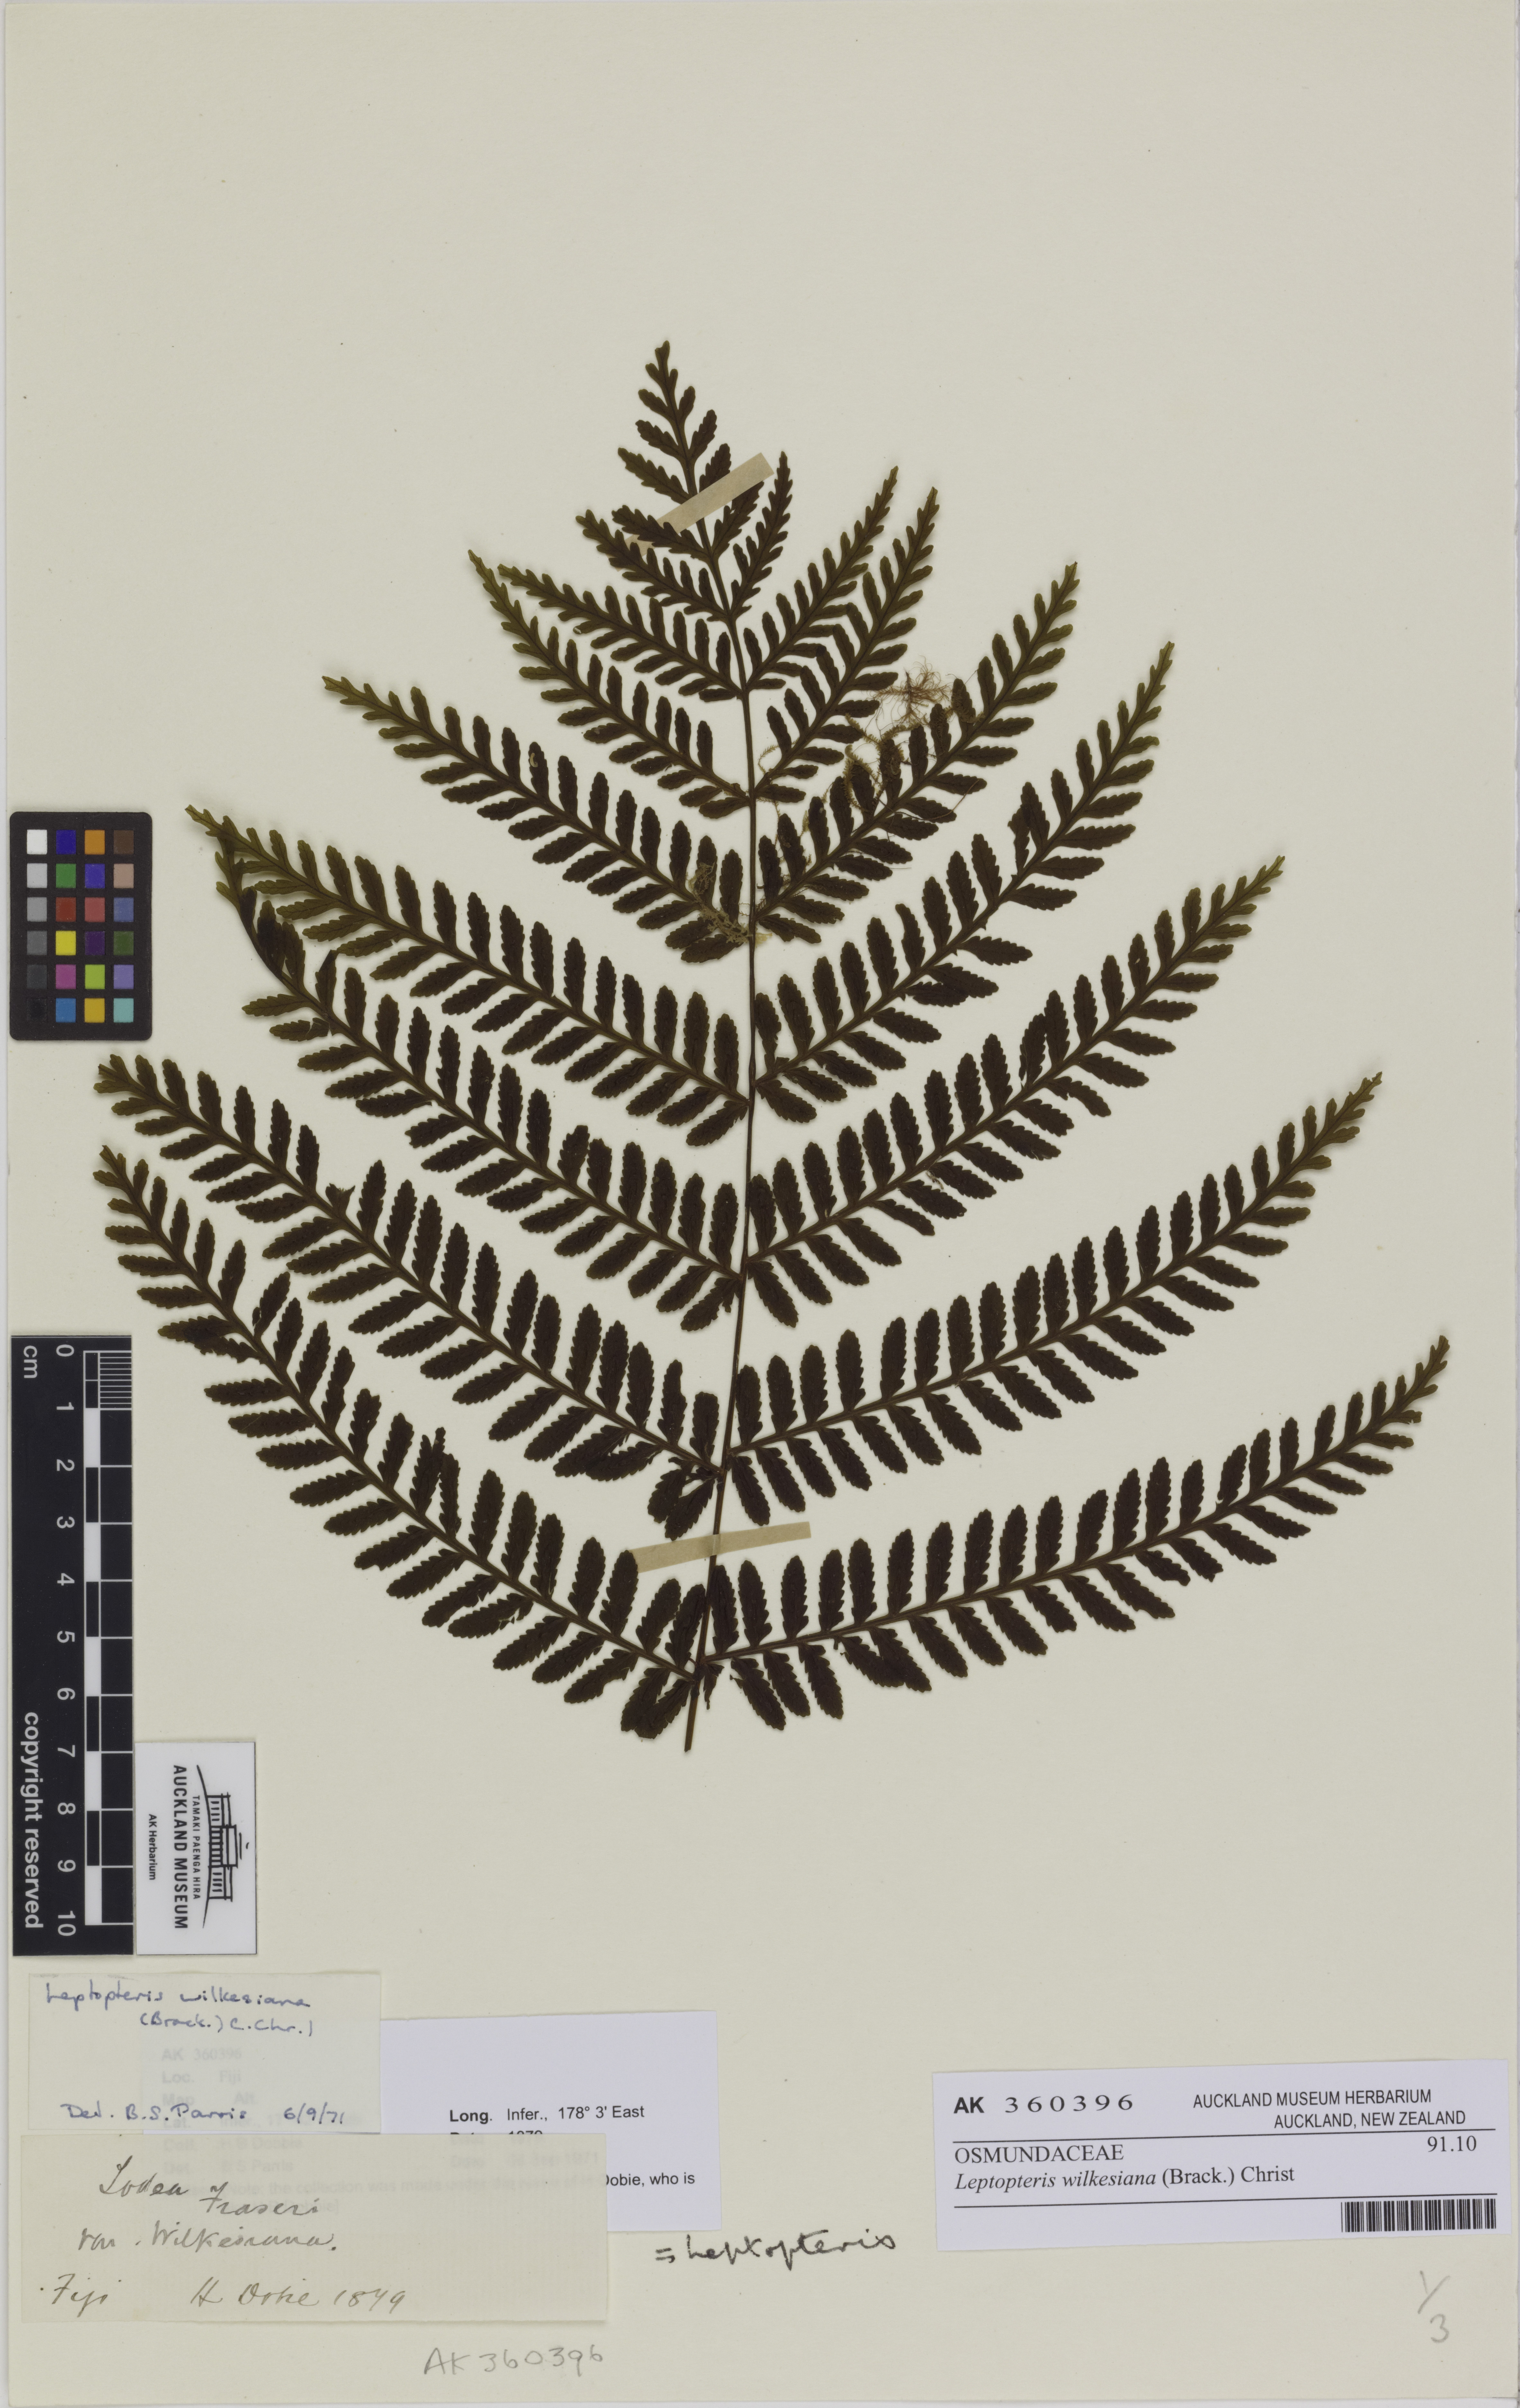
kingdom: Plantae
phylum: Tracheophyta
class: Polypodiopsida
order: Osmundales
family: Osmundaceae
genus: Leptopteris
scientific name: Leptopteris wilkesiana
